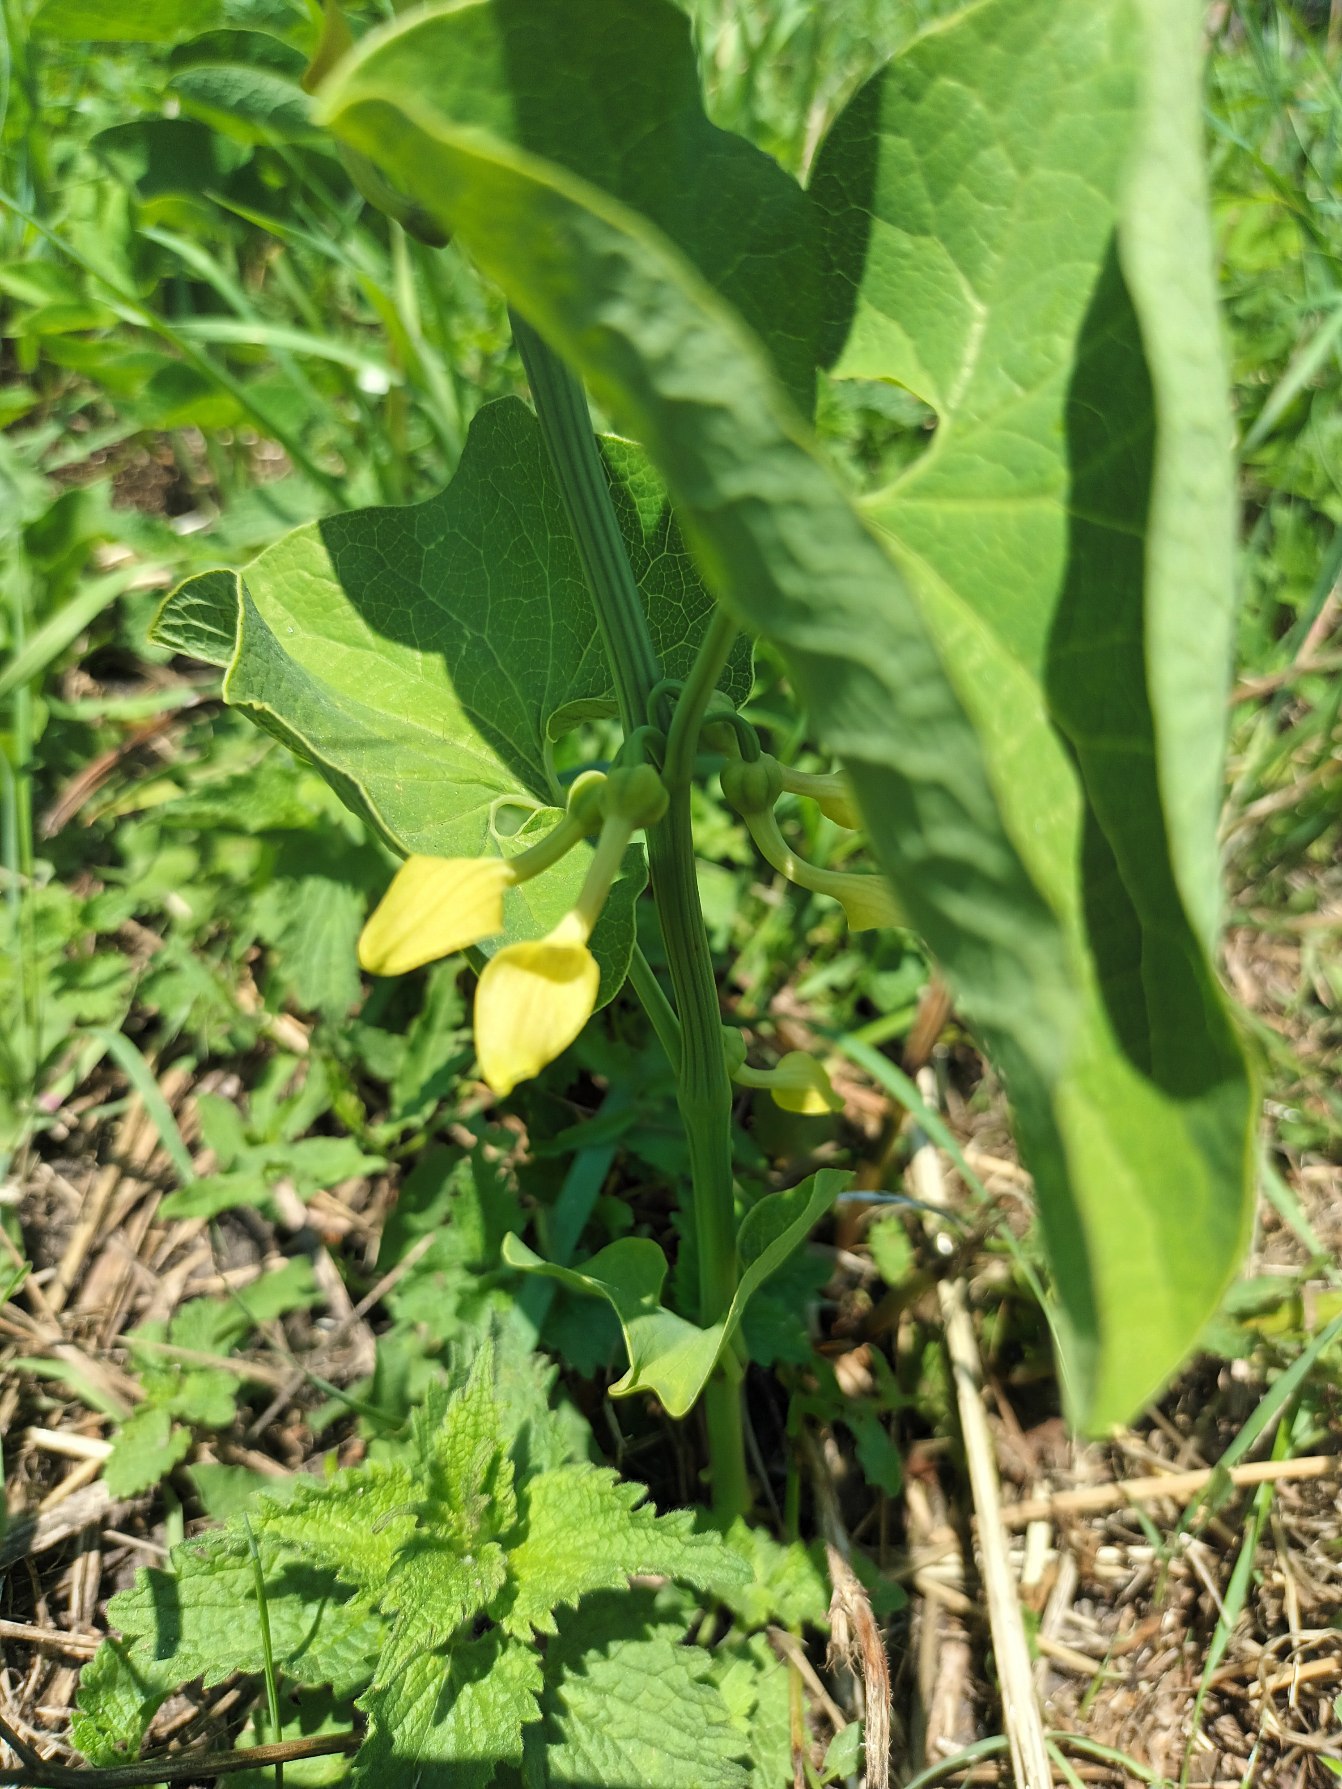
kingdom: Plantae
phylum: Tracheophyta
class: Magnoliopsida
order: Piperales
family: Aristolochiaceae
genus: Aristolochia
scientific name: Aristolochia clematitis
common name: Slangerod
